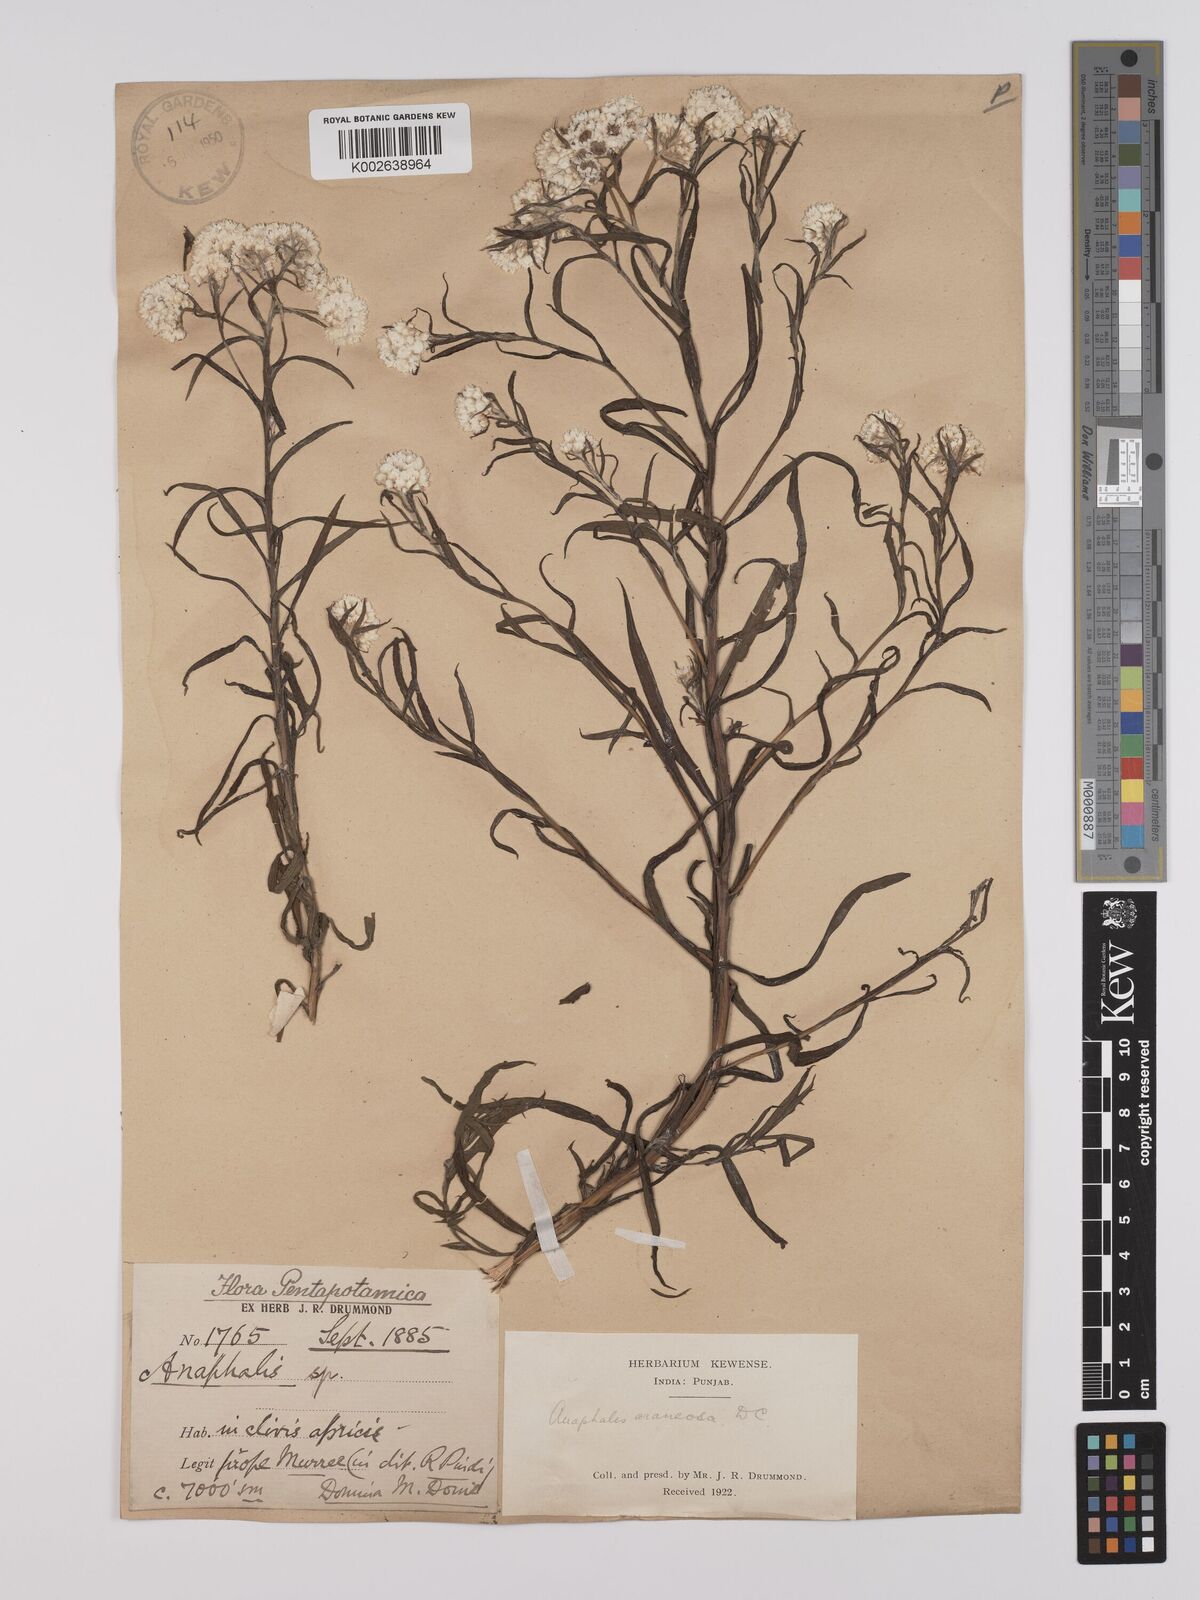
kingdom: Plantae
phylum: Tracheophyta
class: Magnoliopsida
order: Asterales
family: Asteraceae
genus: Anaphalis
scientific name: Anaphalis busua
